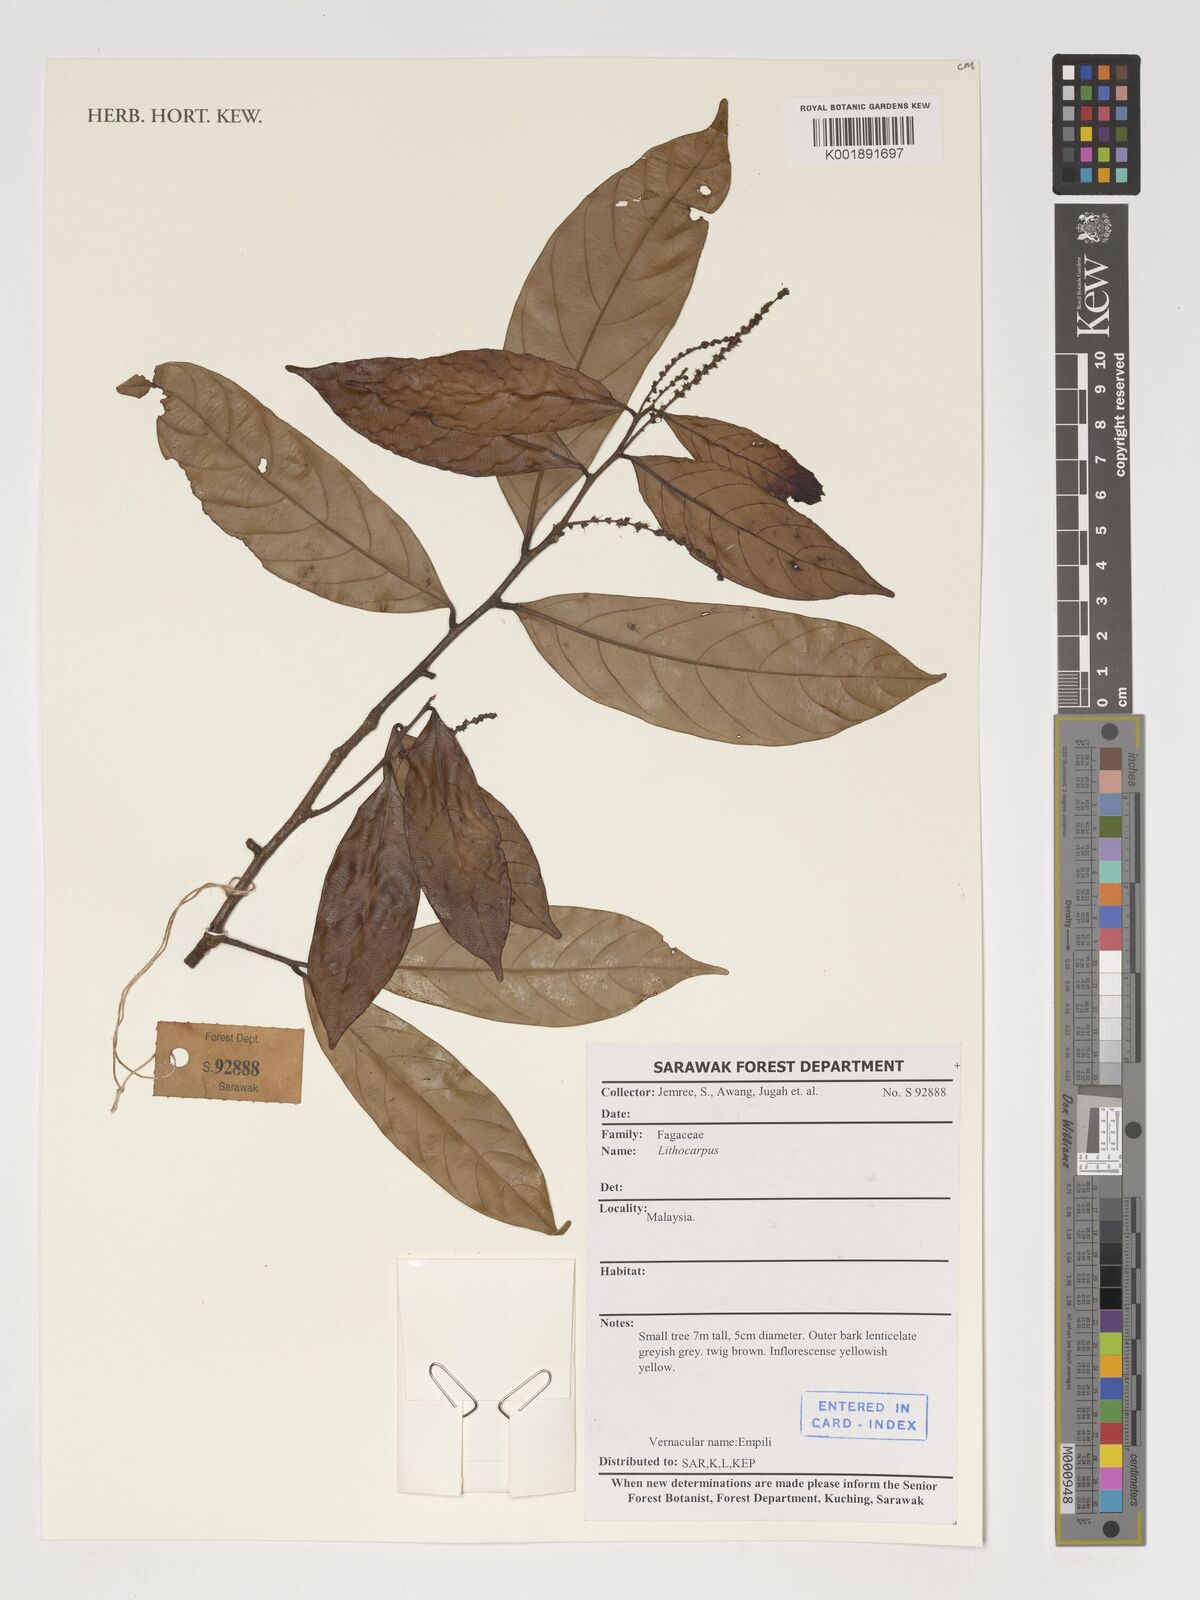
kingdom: Plantae
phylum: Tracheophyta
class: Magnoliopsida
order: Fagales
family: Fagaceae
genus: Lithocarpus
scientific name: Lithocarpus
